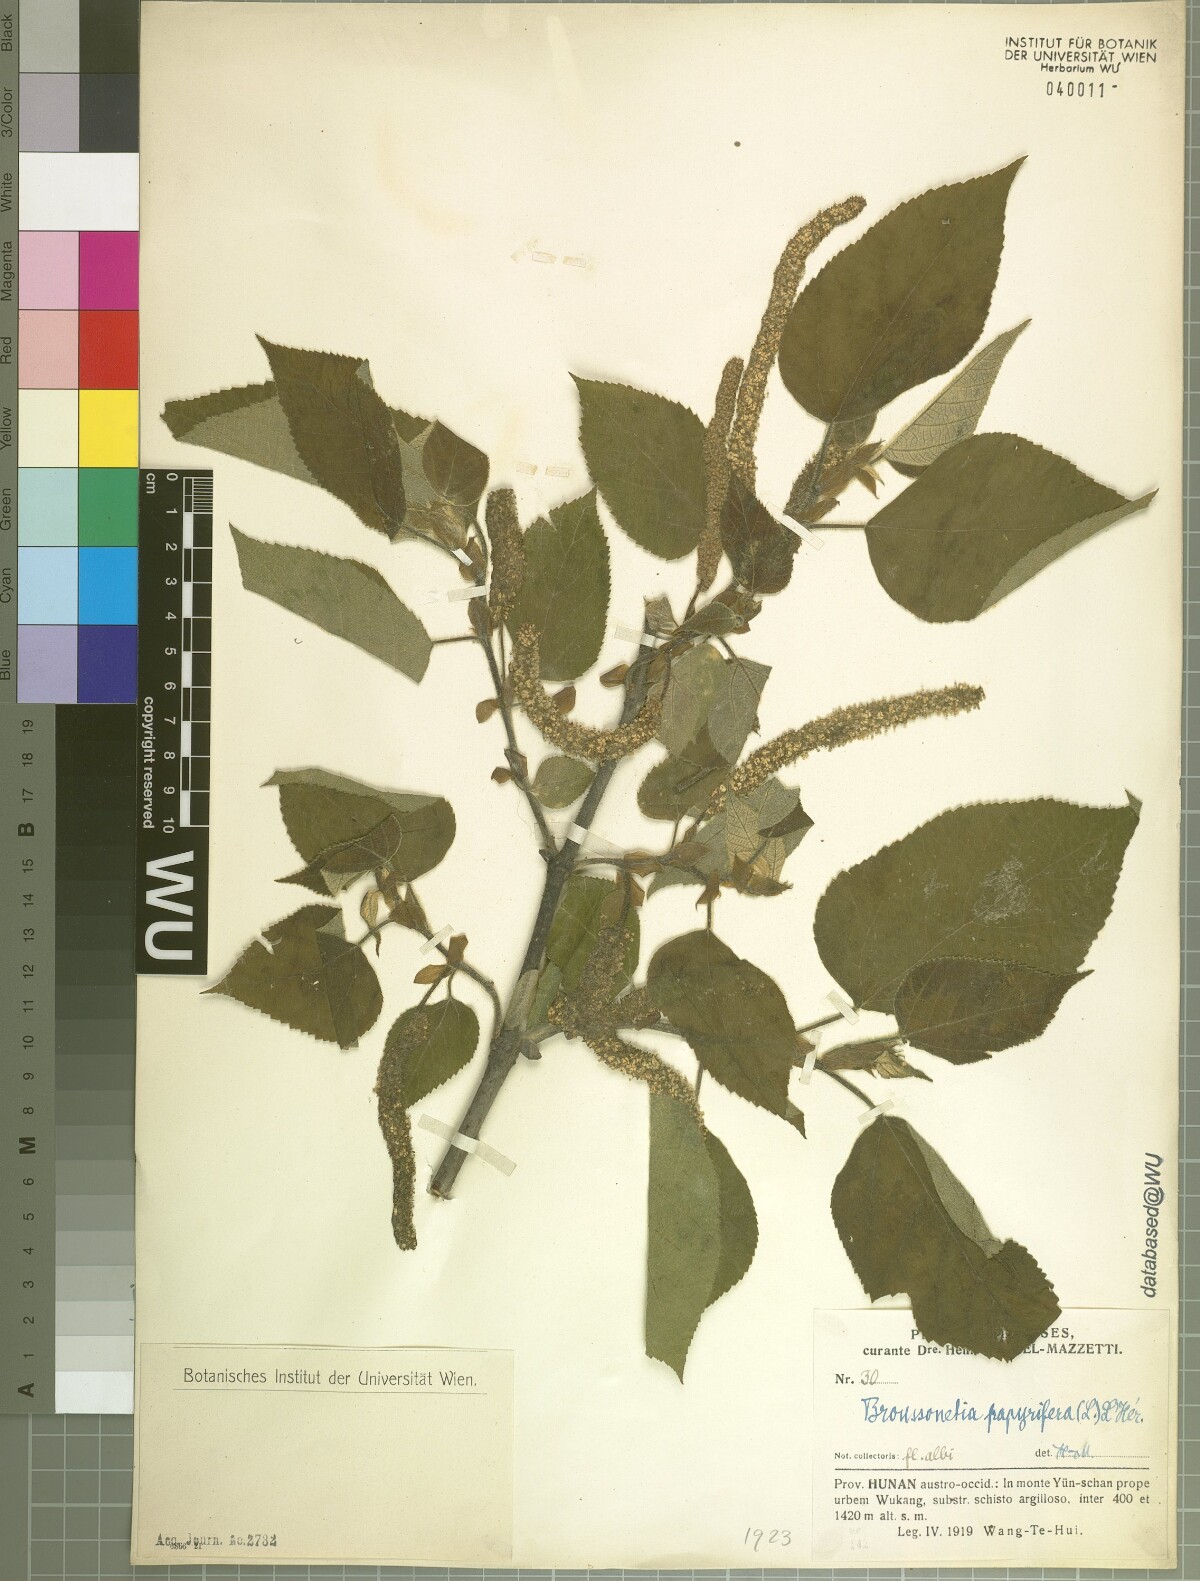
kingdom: Plantae
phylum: Tracheophyta
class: Magnoliopsida
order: Rosales
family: Moraceae
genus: Broussonetia
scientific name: Broussonetia papyrifera
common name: Paper mulberry
